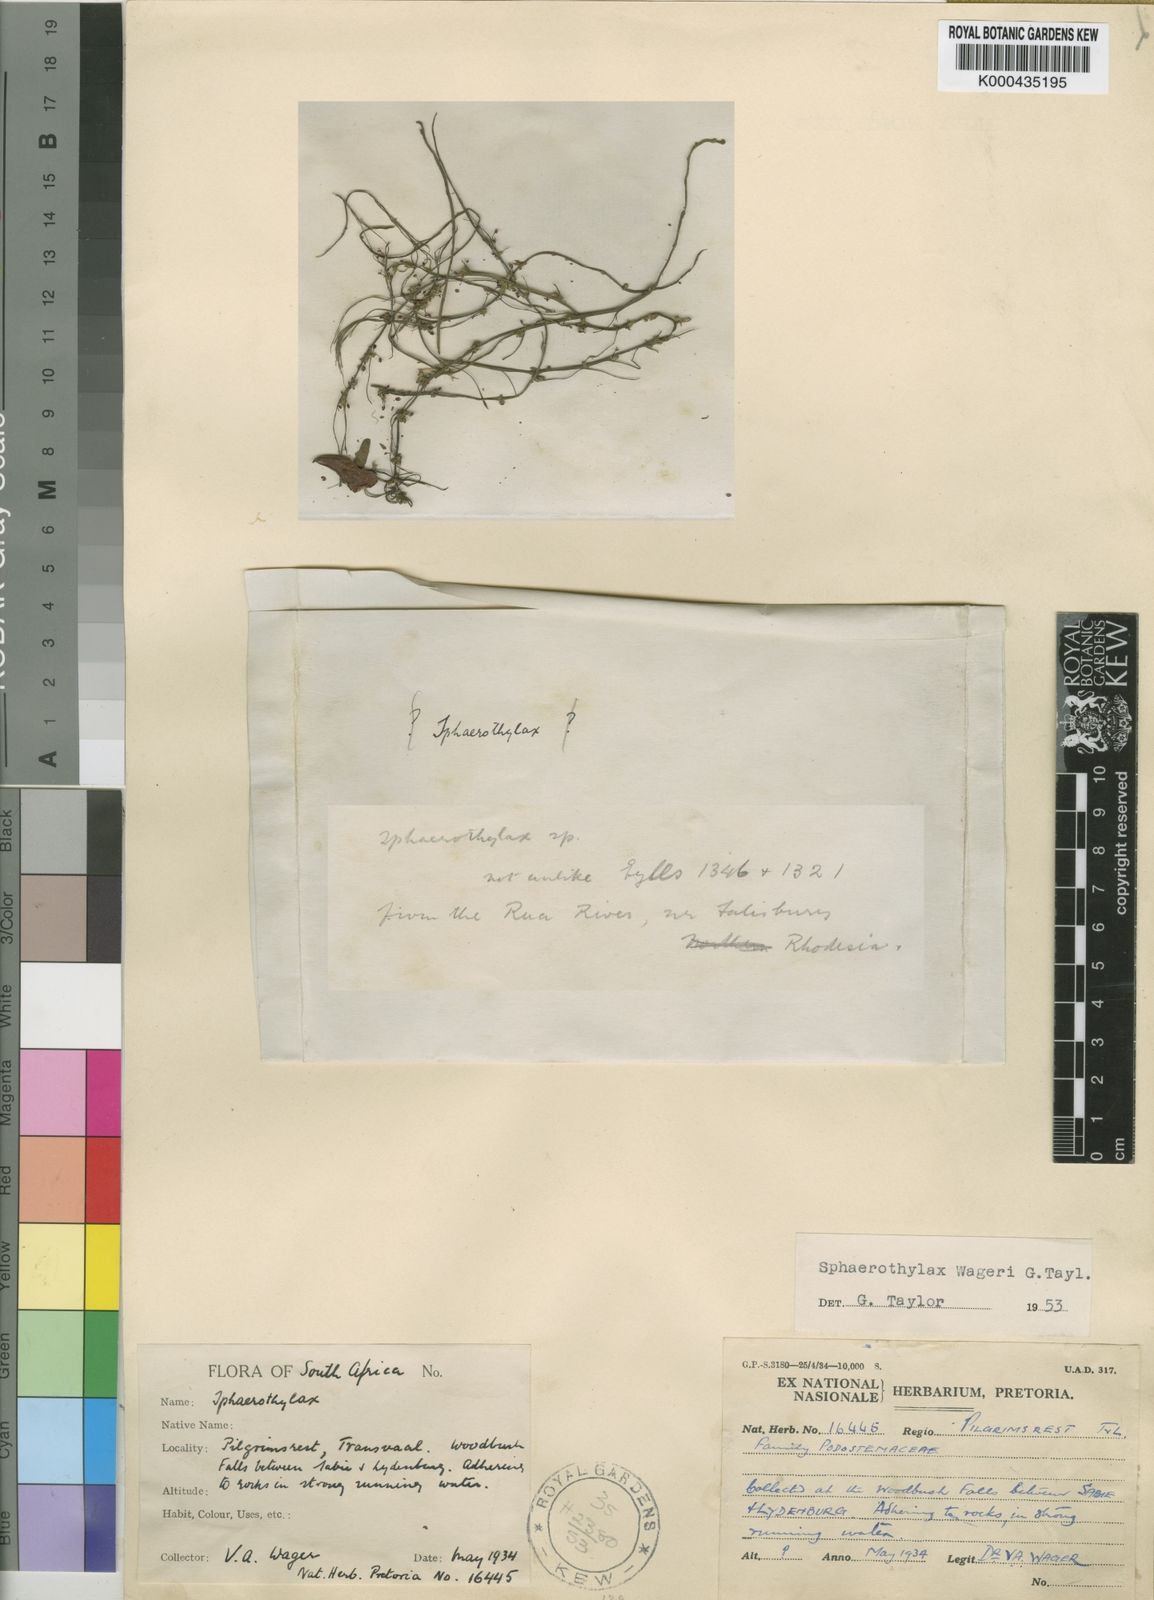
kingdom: Plantae
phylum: Tracheophyta
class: Magnoliopsida
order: Malpighiales
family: Podostemaceae
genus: Sphaerothylax
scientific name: Sphaerothylax algiformis
